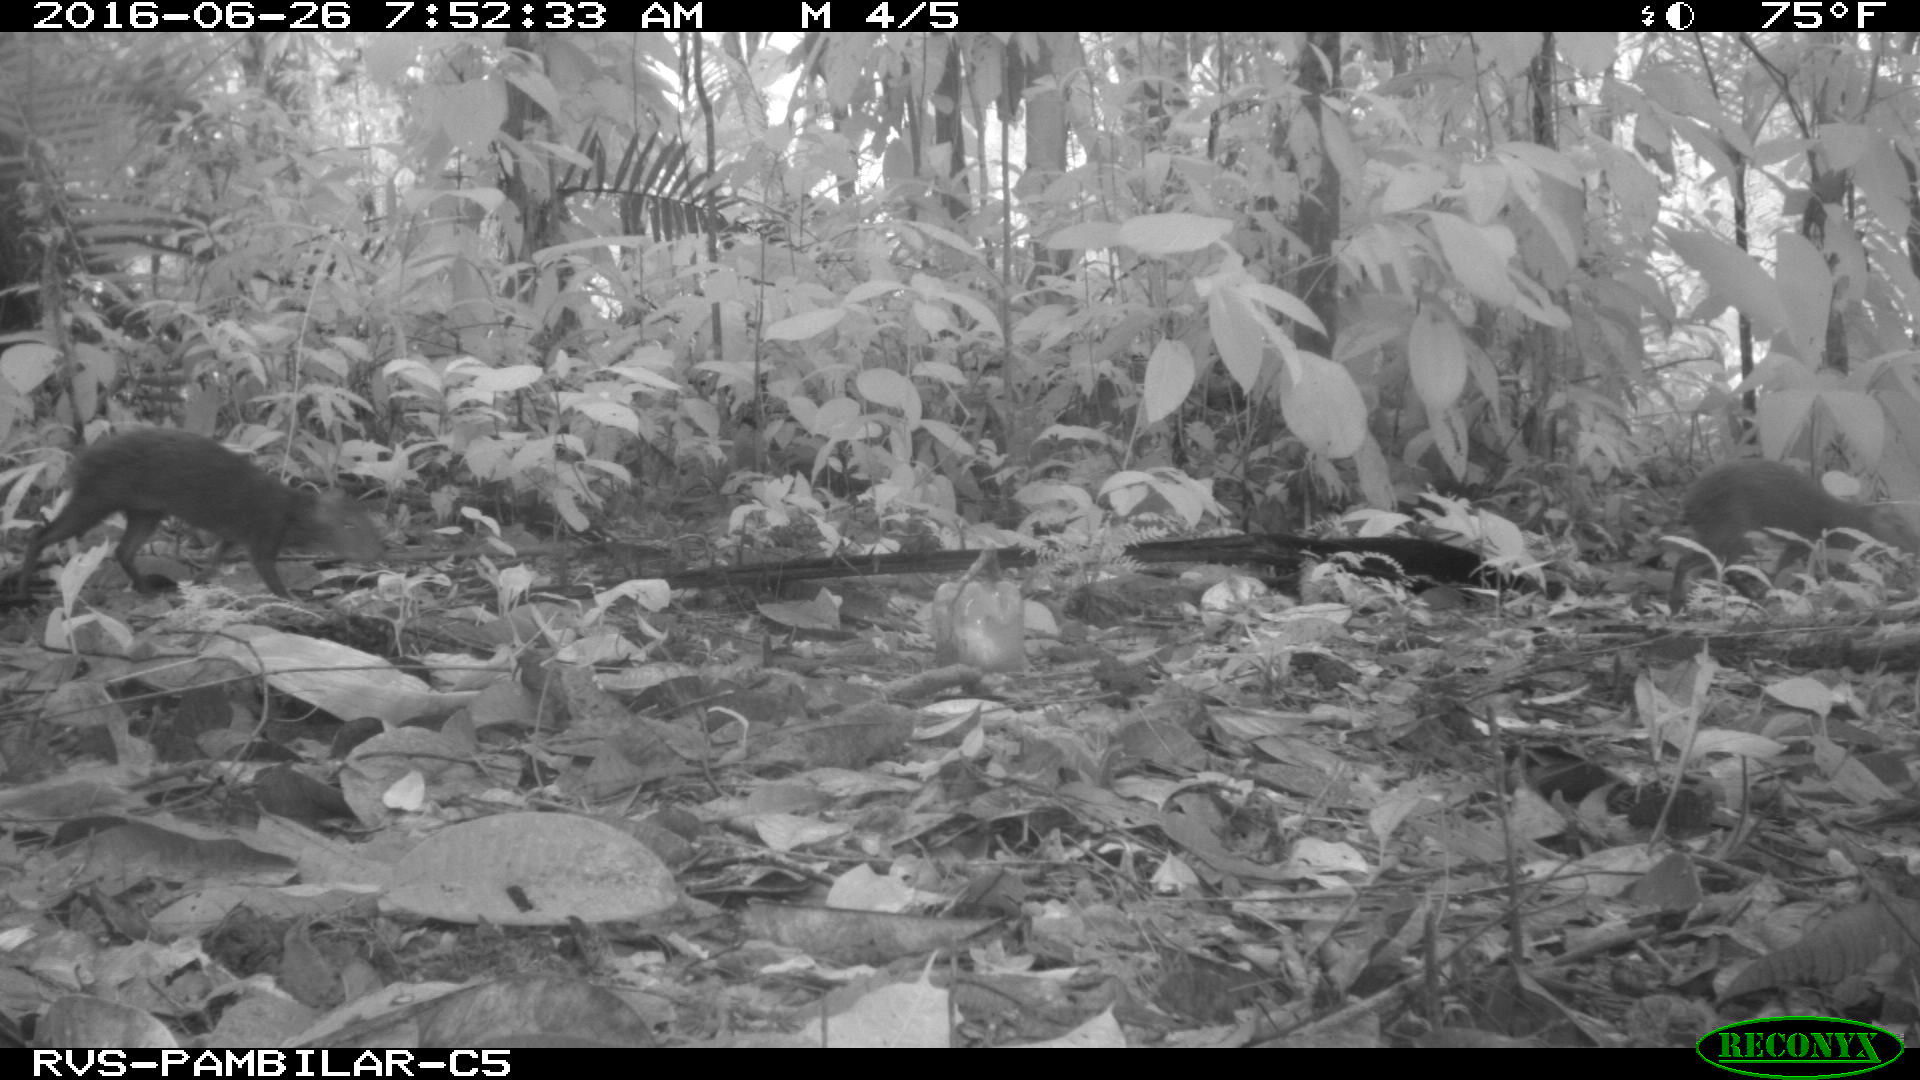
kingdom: Animalia
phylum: Chordata
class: Mammalia
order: Rodentia
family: Dasyproctidae
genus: Dasyprocta
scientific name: Dasyprocta punctata
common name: Central american agouti
